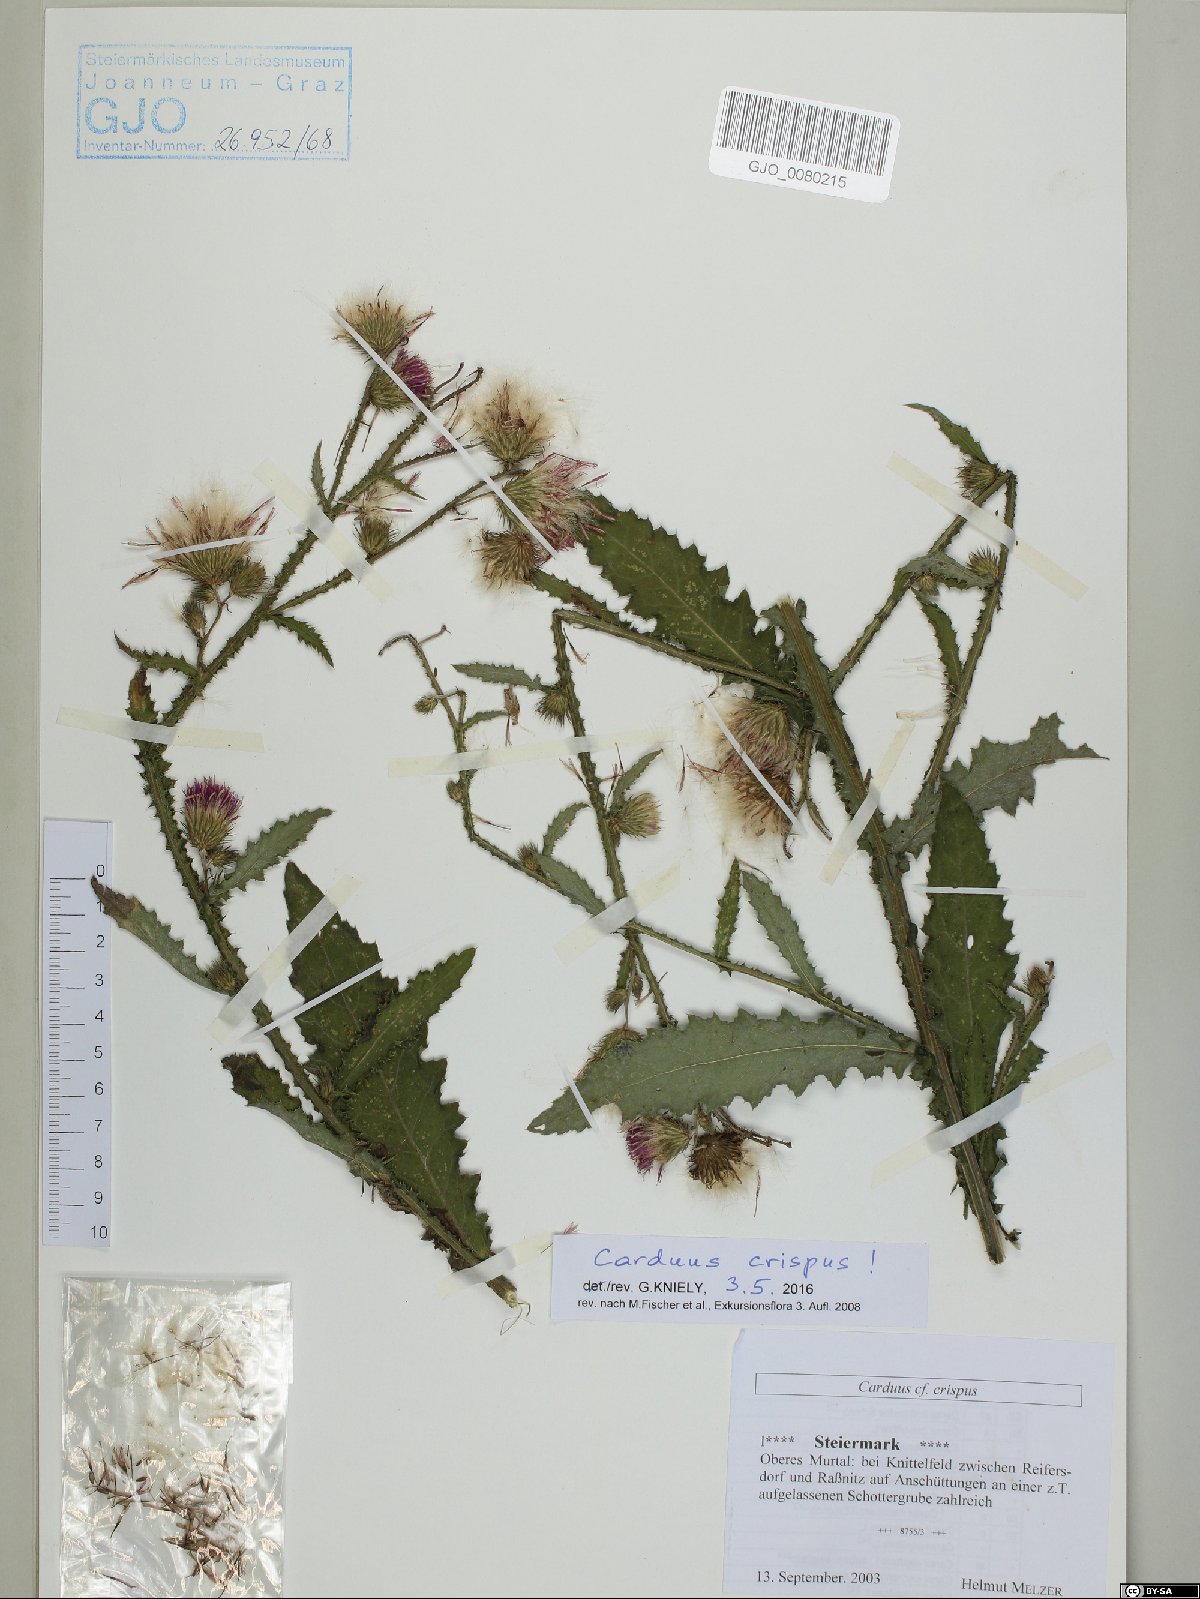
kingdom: Plantae
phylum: Tracheophyta
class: Magnoliopsida
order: Asterales
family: Asteraceae
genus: Carduus
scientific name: Carduus crispus
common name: Welted thistle
